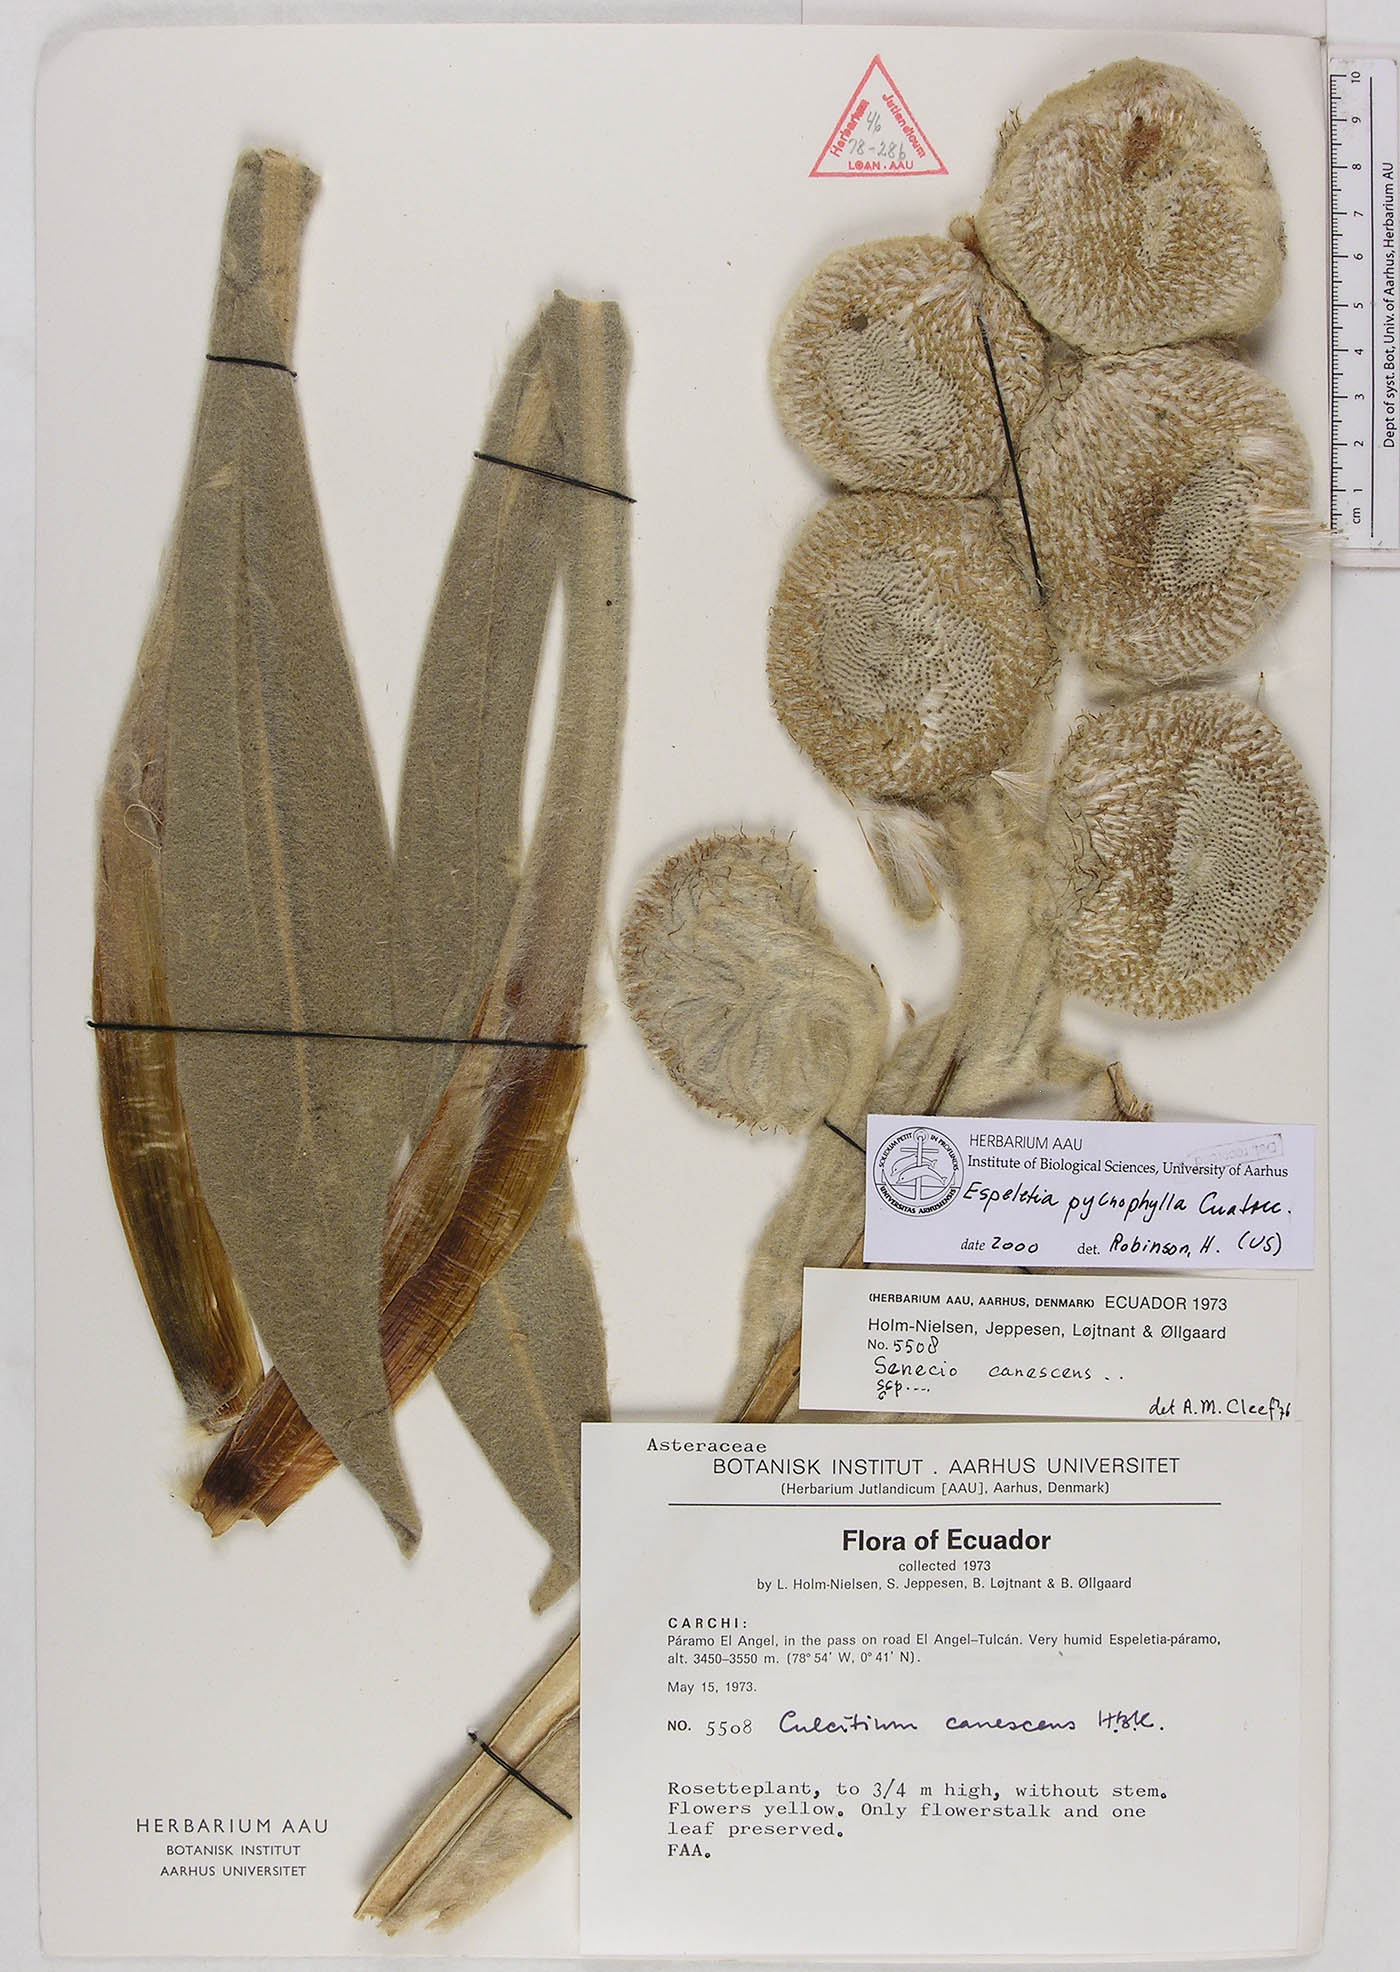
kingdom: Plantae
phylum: Tracheophyta
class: Magnoliopsida
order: Asterales
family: Asteraceae
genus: Espeletia
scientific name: Espeletia pycnophylla
